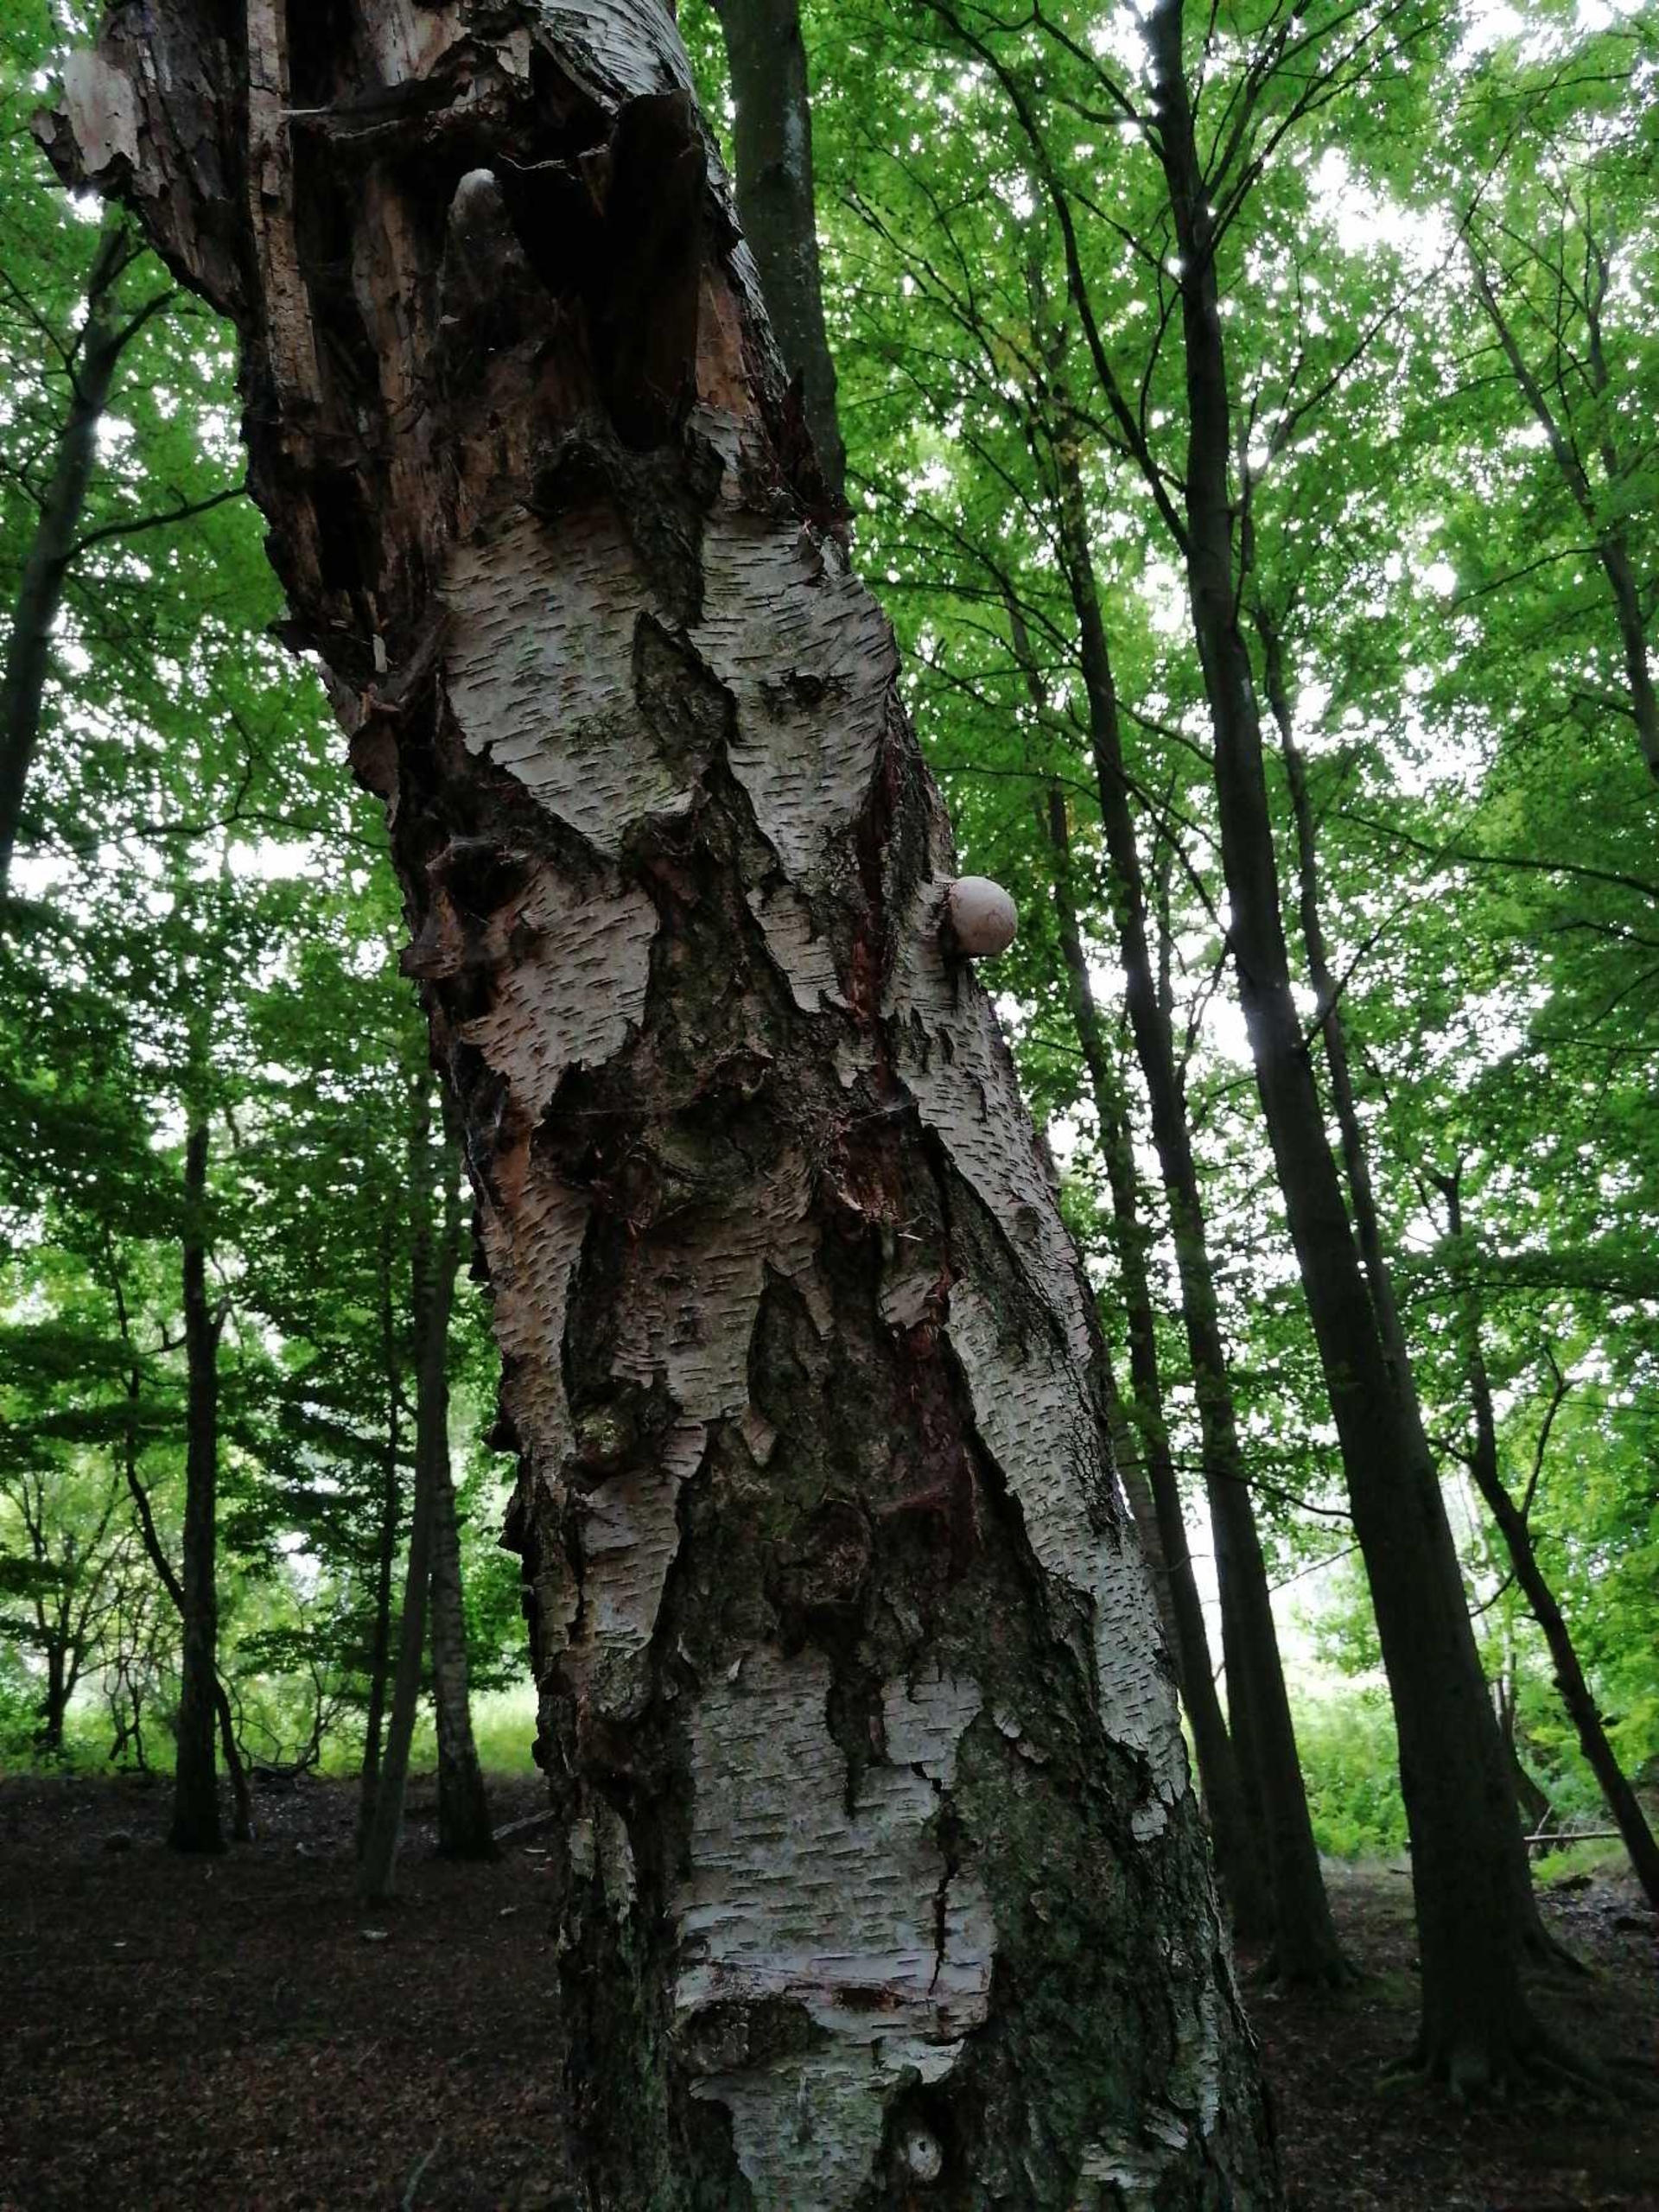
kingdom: Fungi
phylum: Basidiomycota
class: Agaricomycetes
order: Polyporales
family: Fomitopsidaceae
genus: Fomitopsis
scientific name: Fomitopsis betulina
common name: Birkeporesvamp
